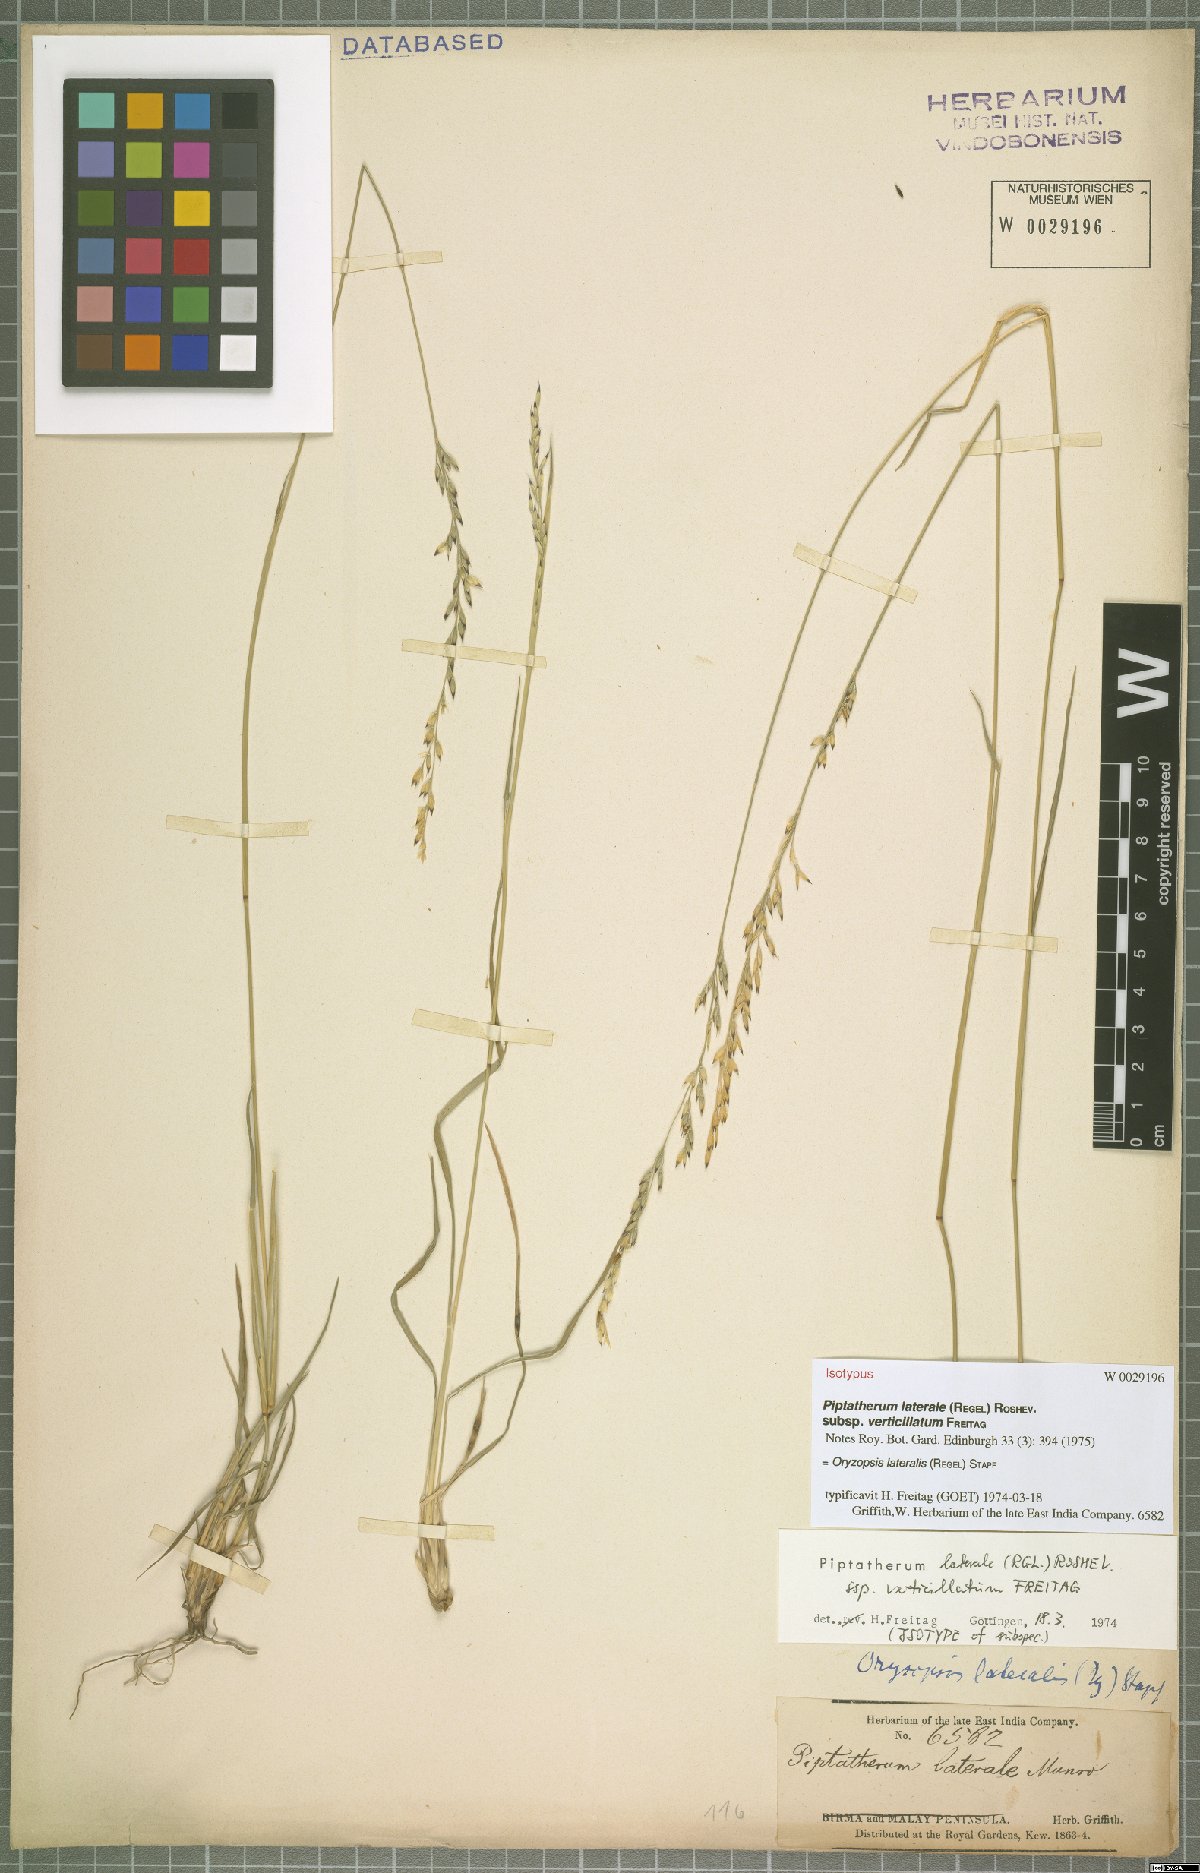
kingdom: Plantae
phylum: Tracheophyta
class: Liliopsida
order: Poales
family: Poaceae
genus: Piptatherum
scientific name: Piptatherum laterale
